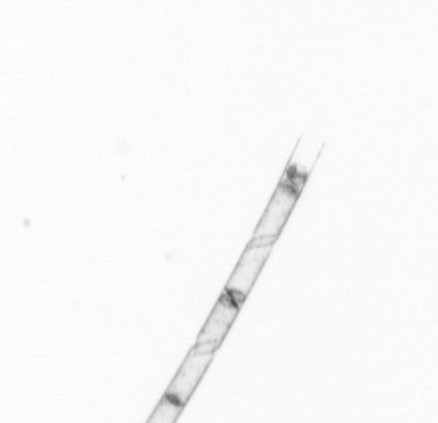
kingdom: Chromista
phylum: Ochrophyta
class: Bacillariophyceae
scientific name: Bacillariophyceae
